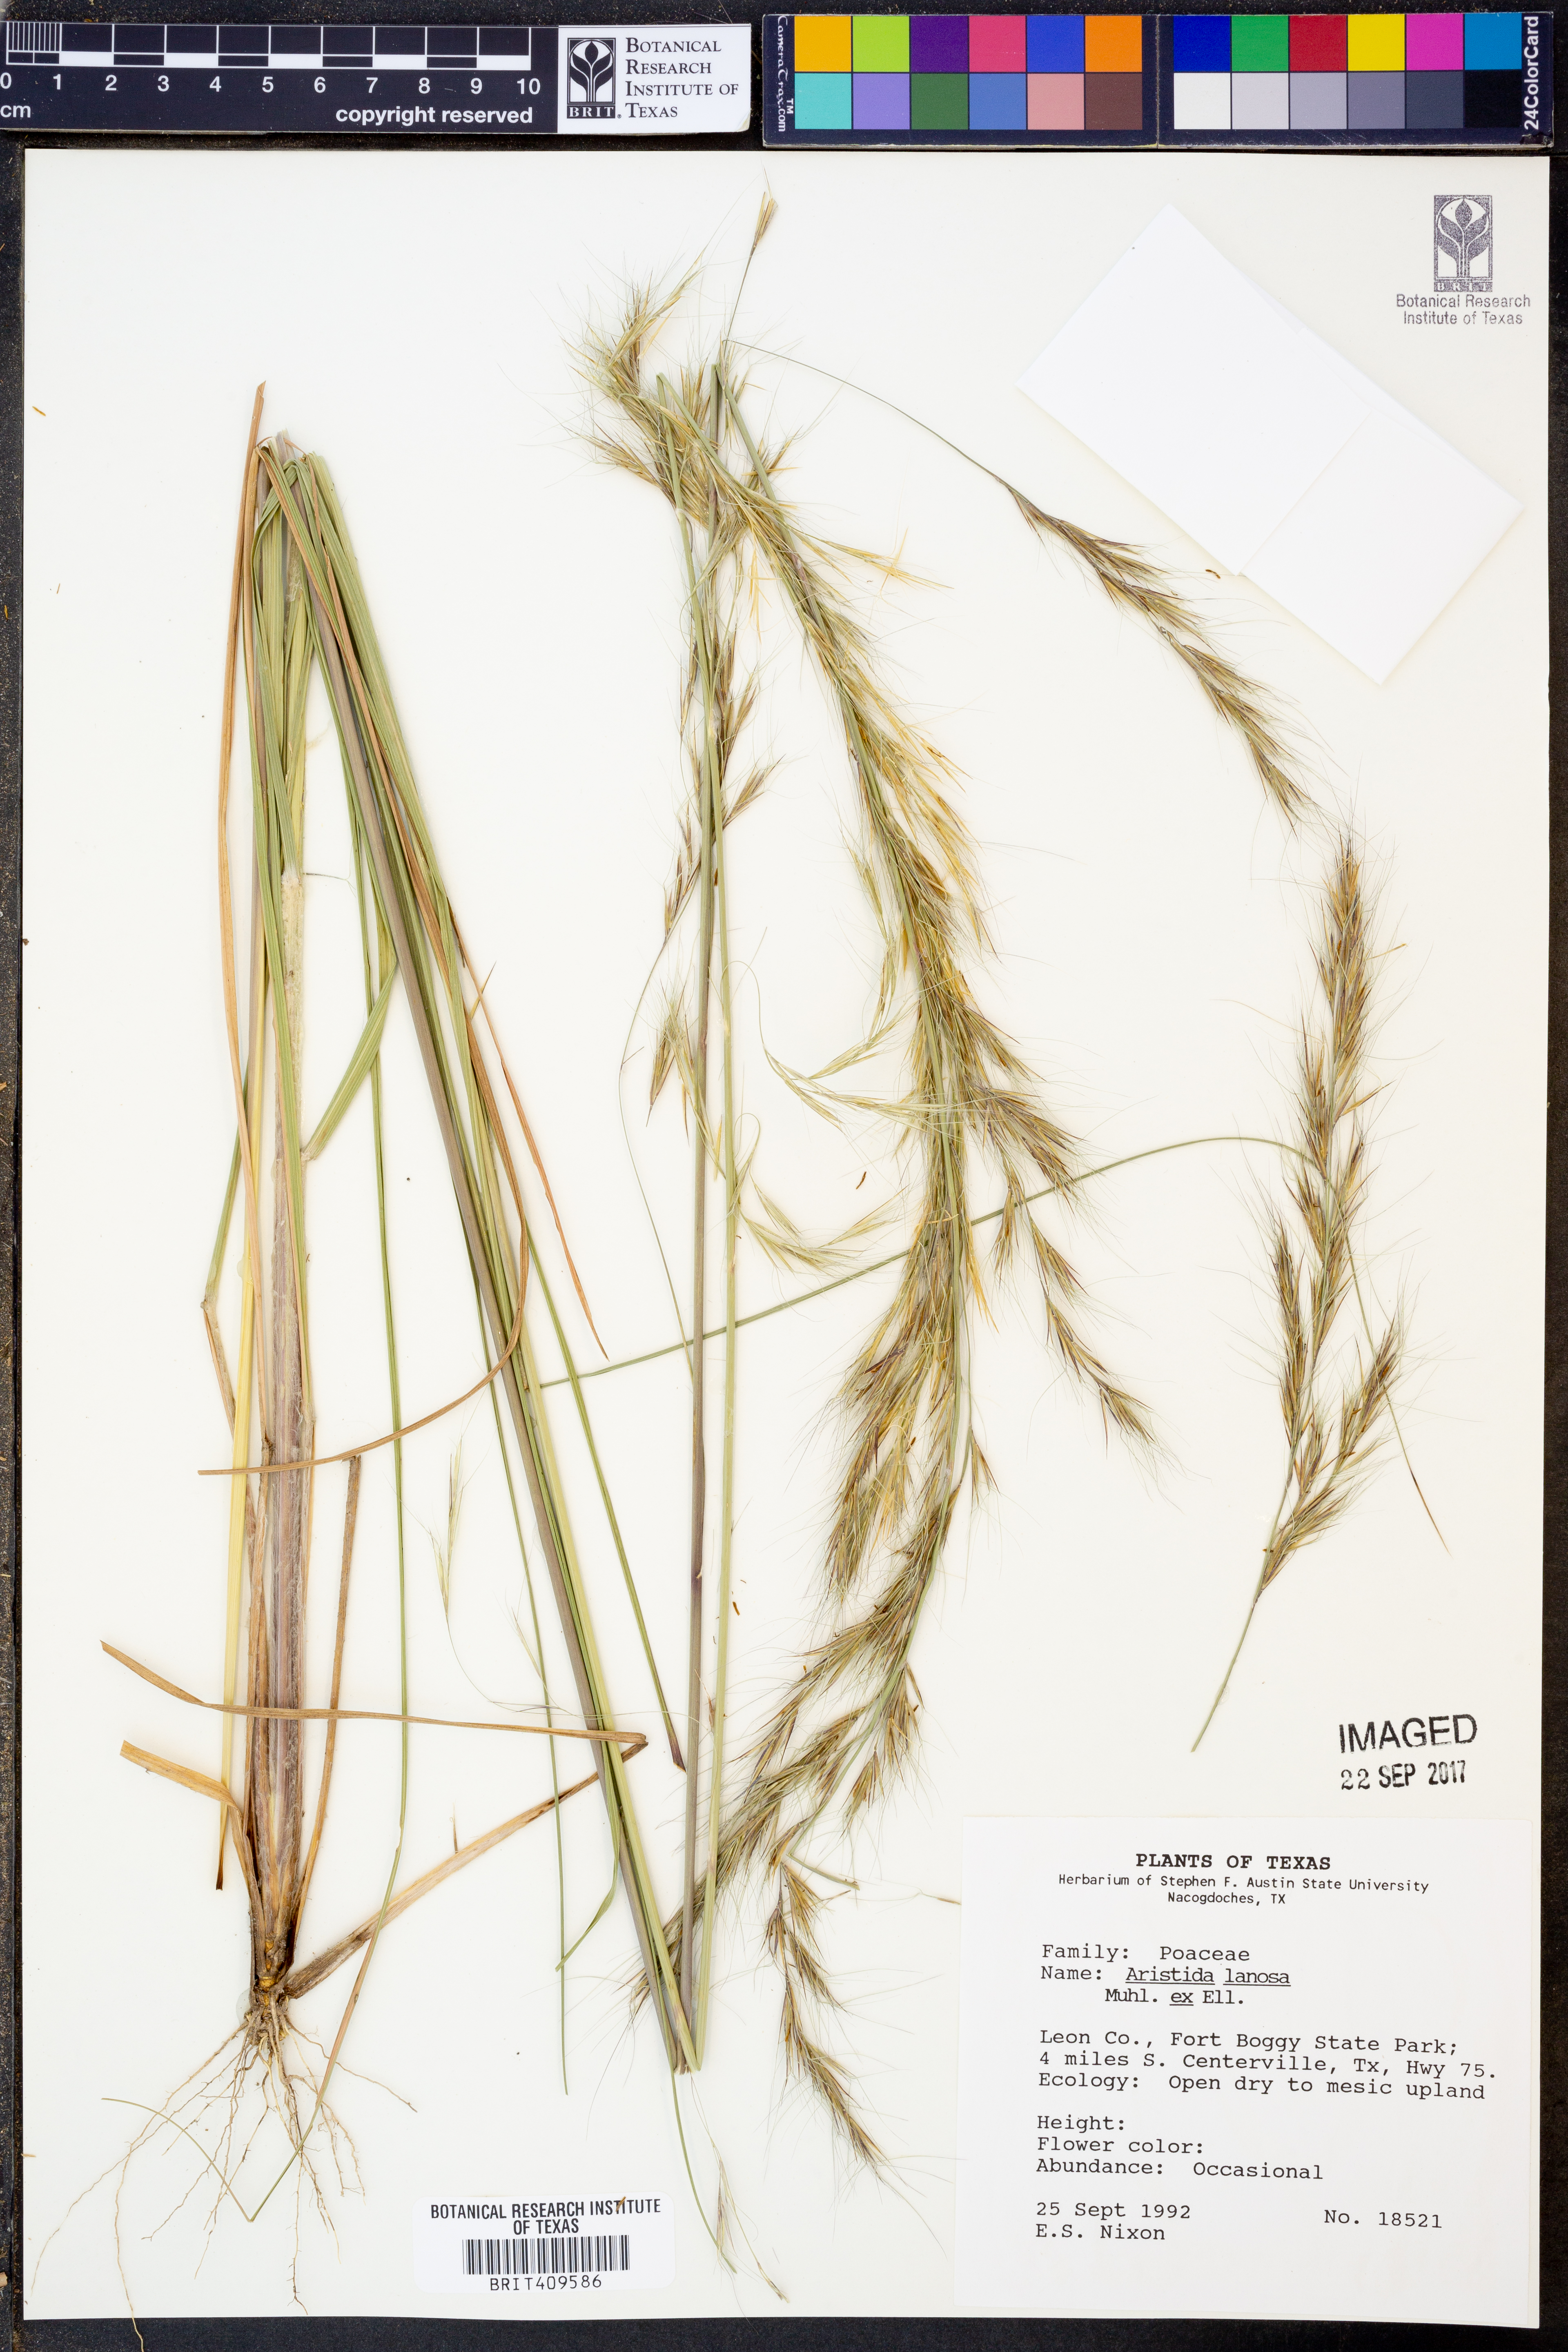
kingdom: Plantae
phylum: Tracheophyta
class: Liliopsida
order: Poales
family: Poaceae
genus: Aristida
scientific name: Aristida lanosa
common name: Woolly three-awn
